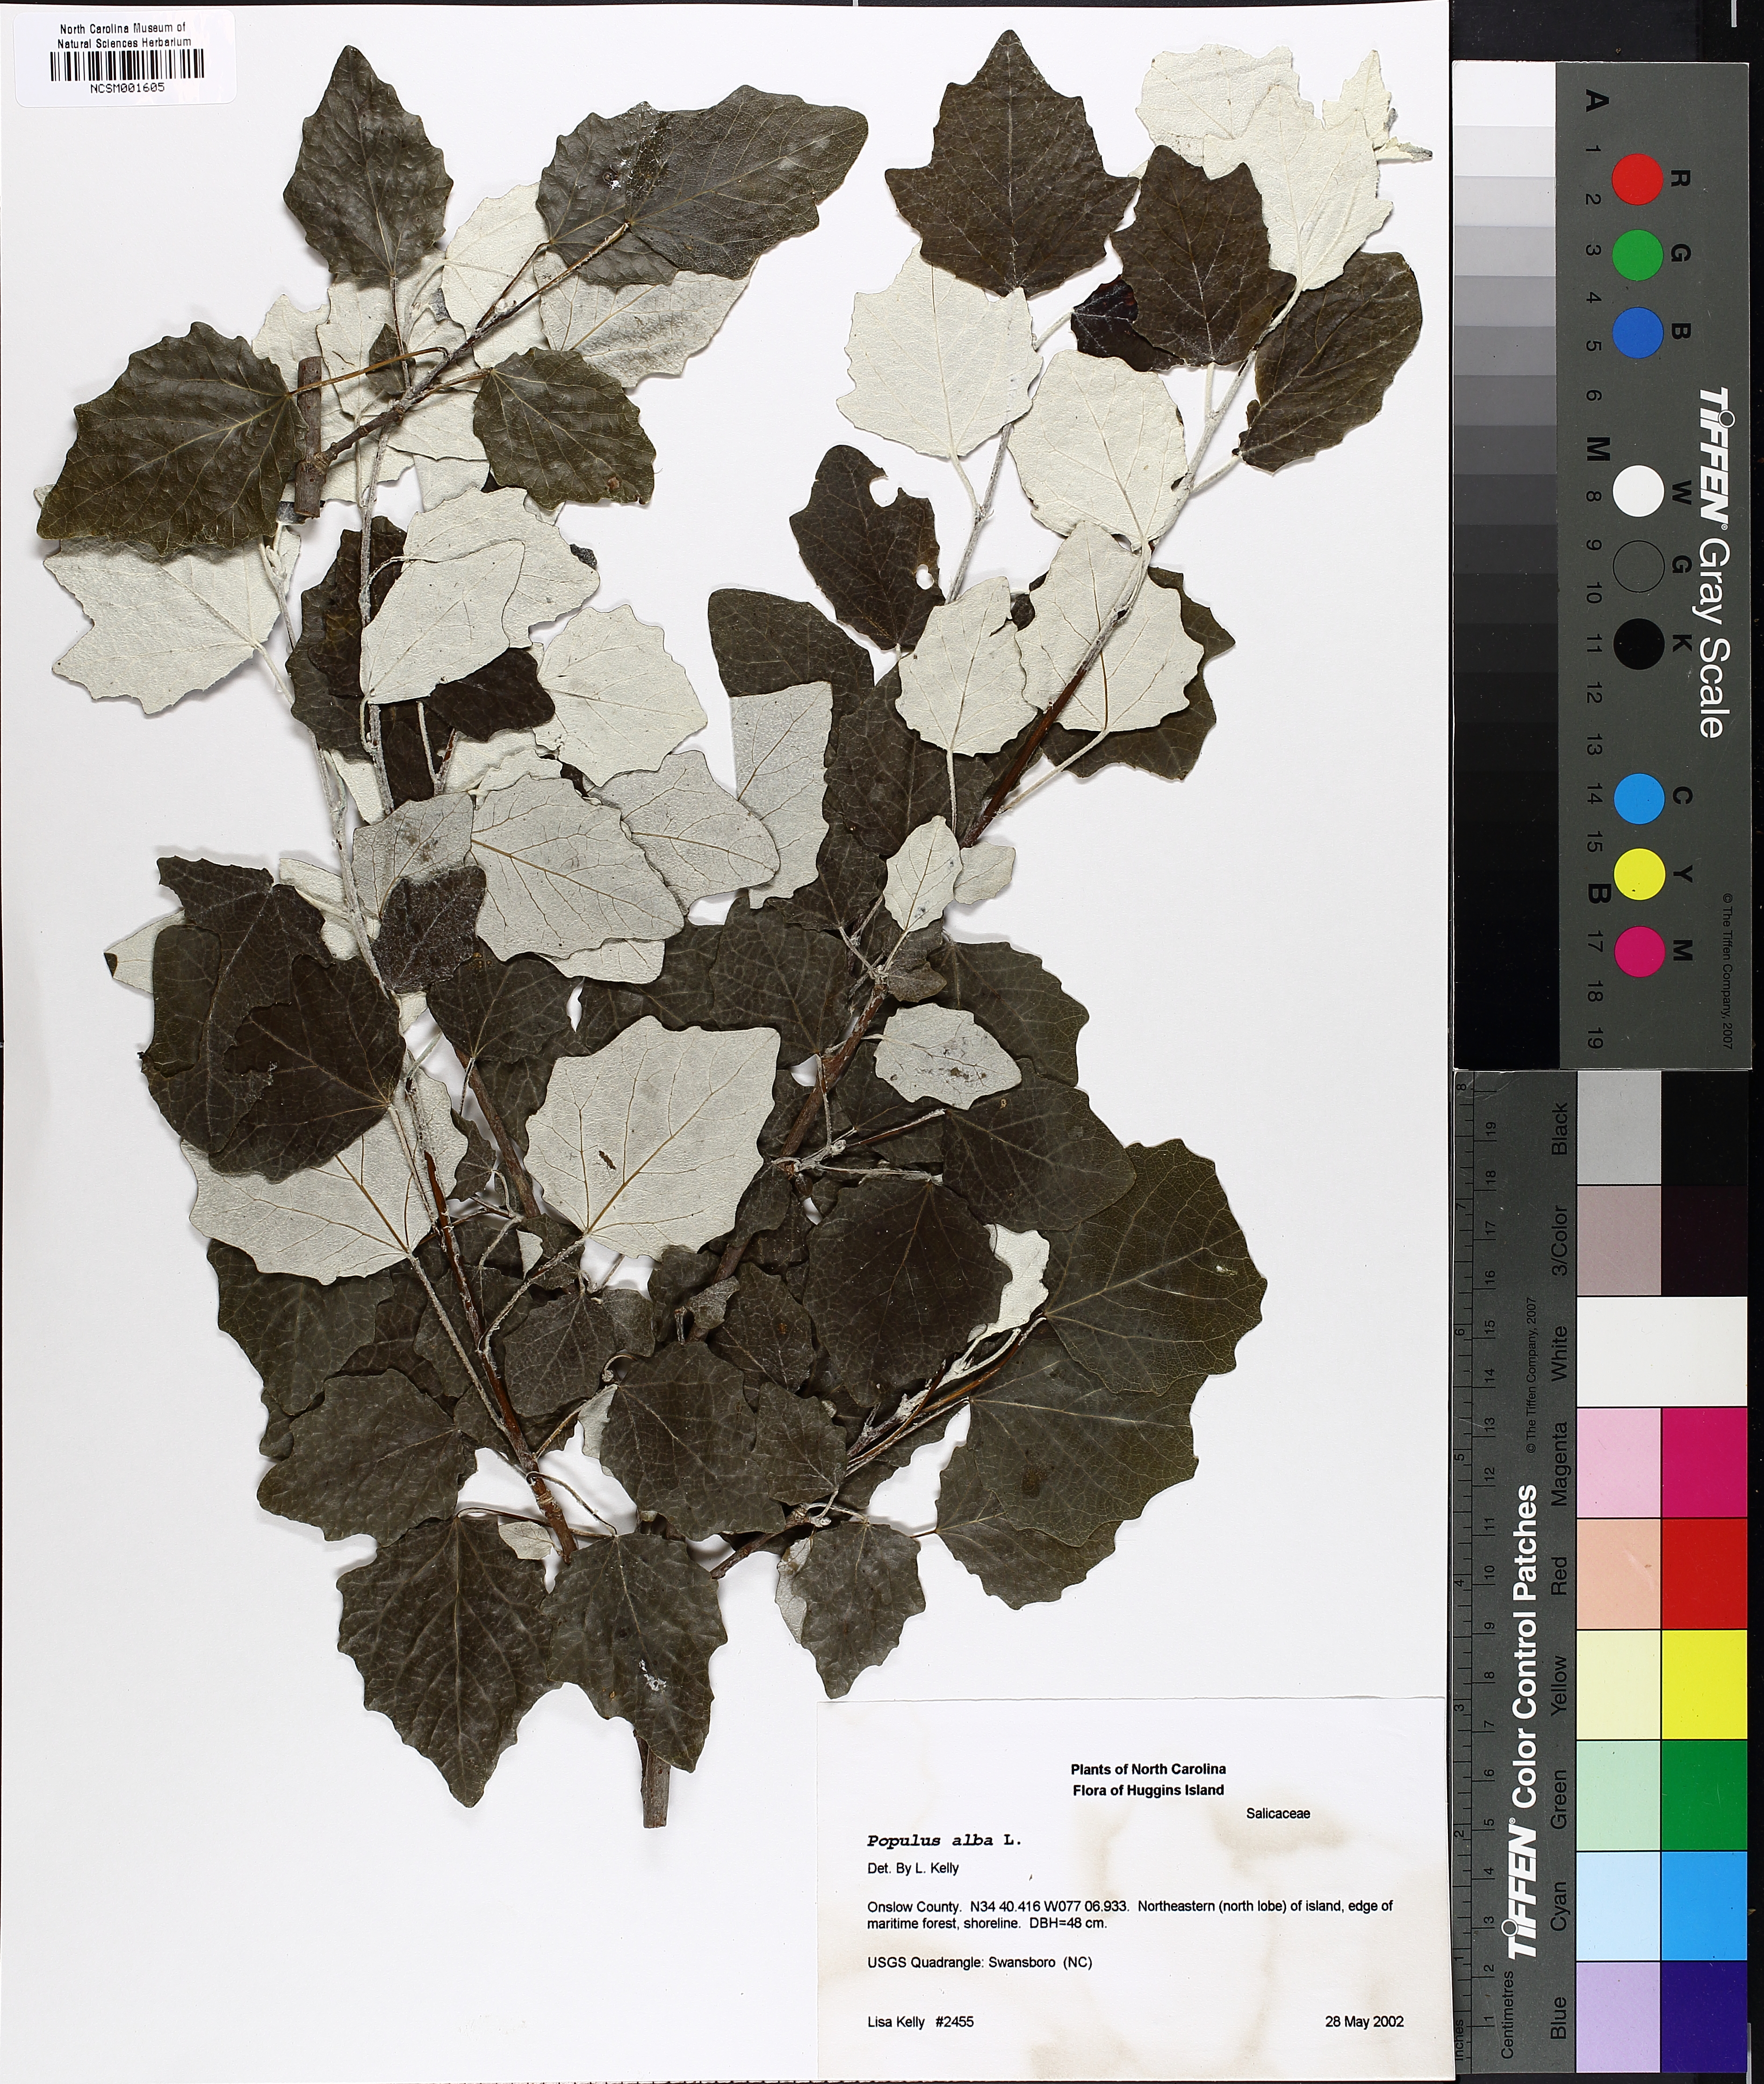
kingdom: Plantae
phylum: Tracheophyta
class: Magnoliopsida
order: Malpighiales
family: Salicaceae
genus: Populus
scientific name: Populus alba
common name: White poplar
